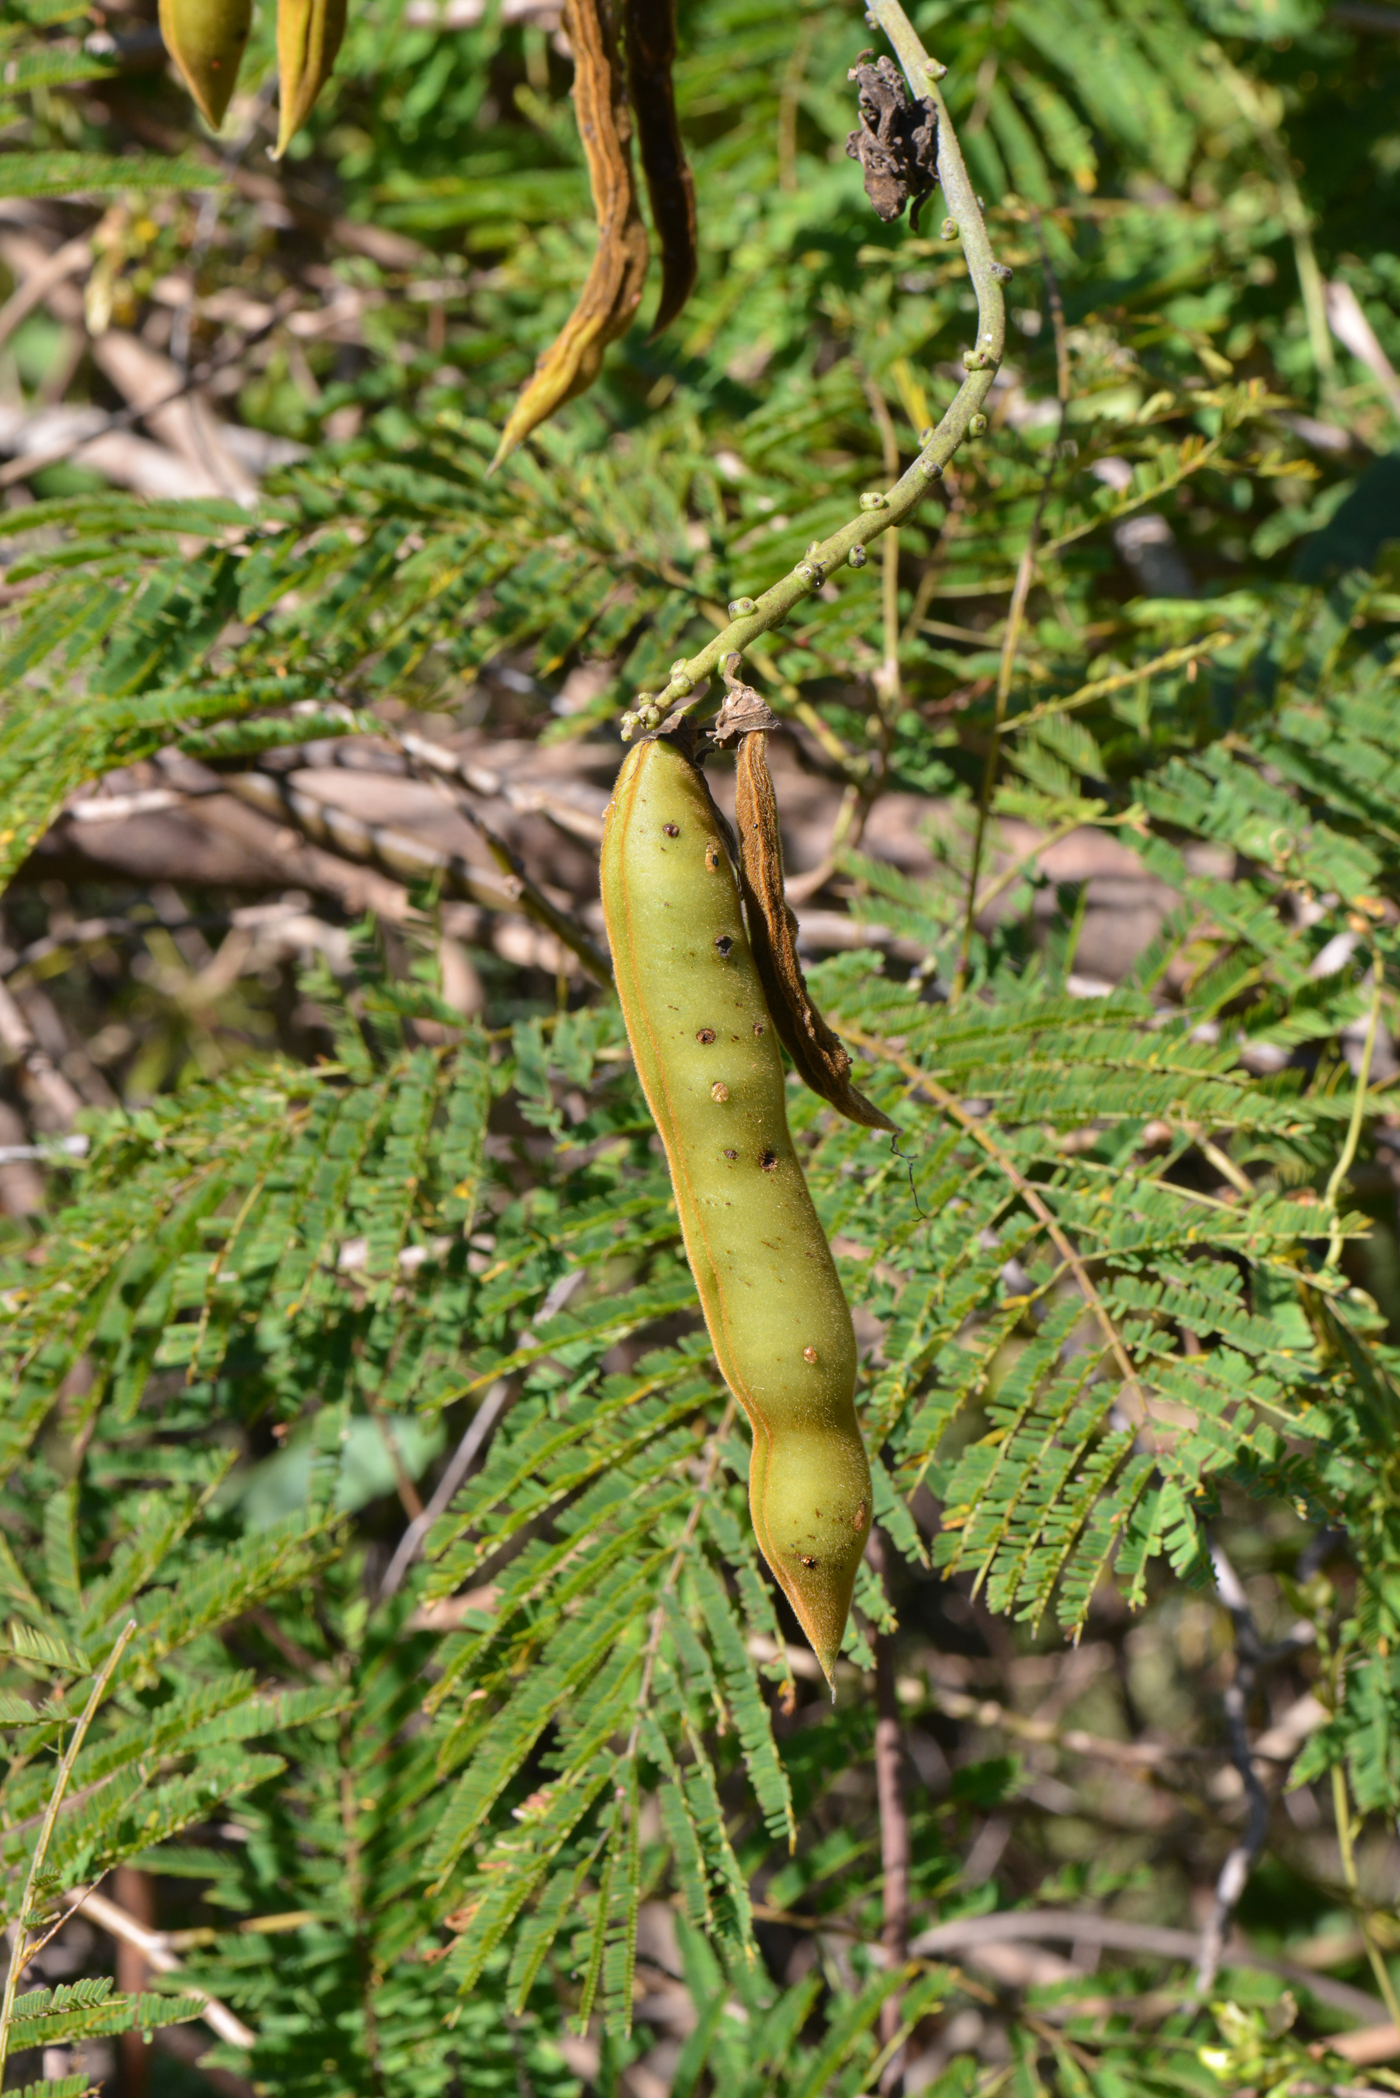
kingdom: Plantae
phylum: Tracheophyta
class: Magnoliopsida
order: Fabales
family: Fabaceae
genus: Dysolobium
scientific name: Dysolobium grande
